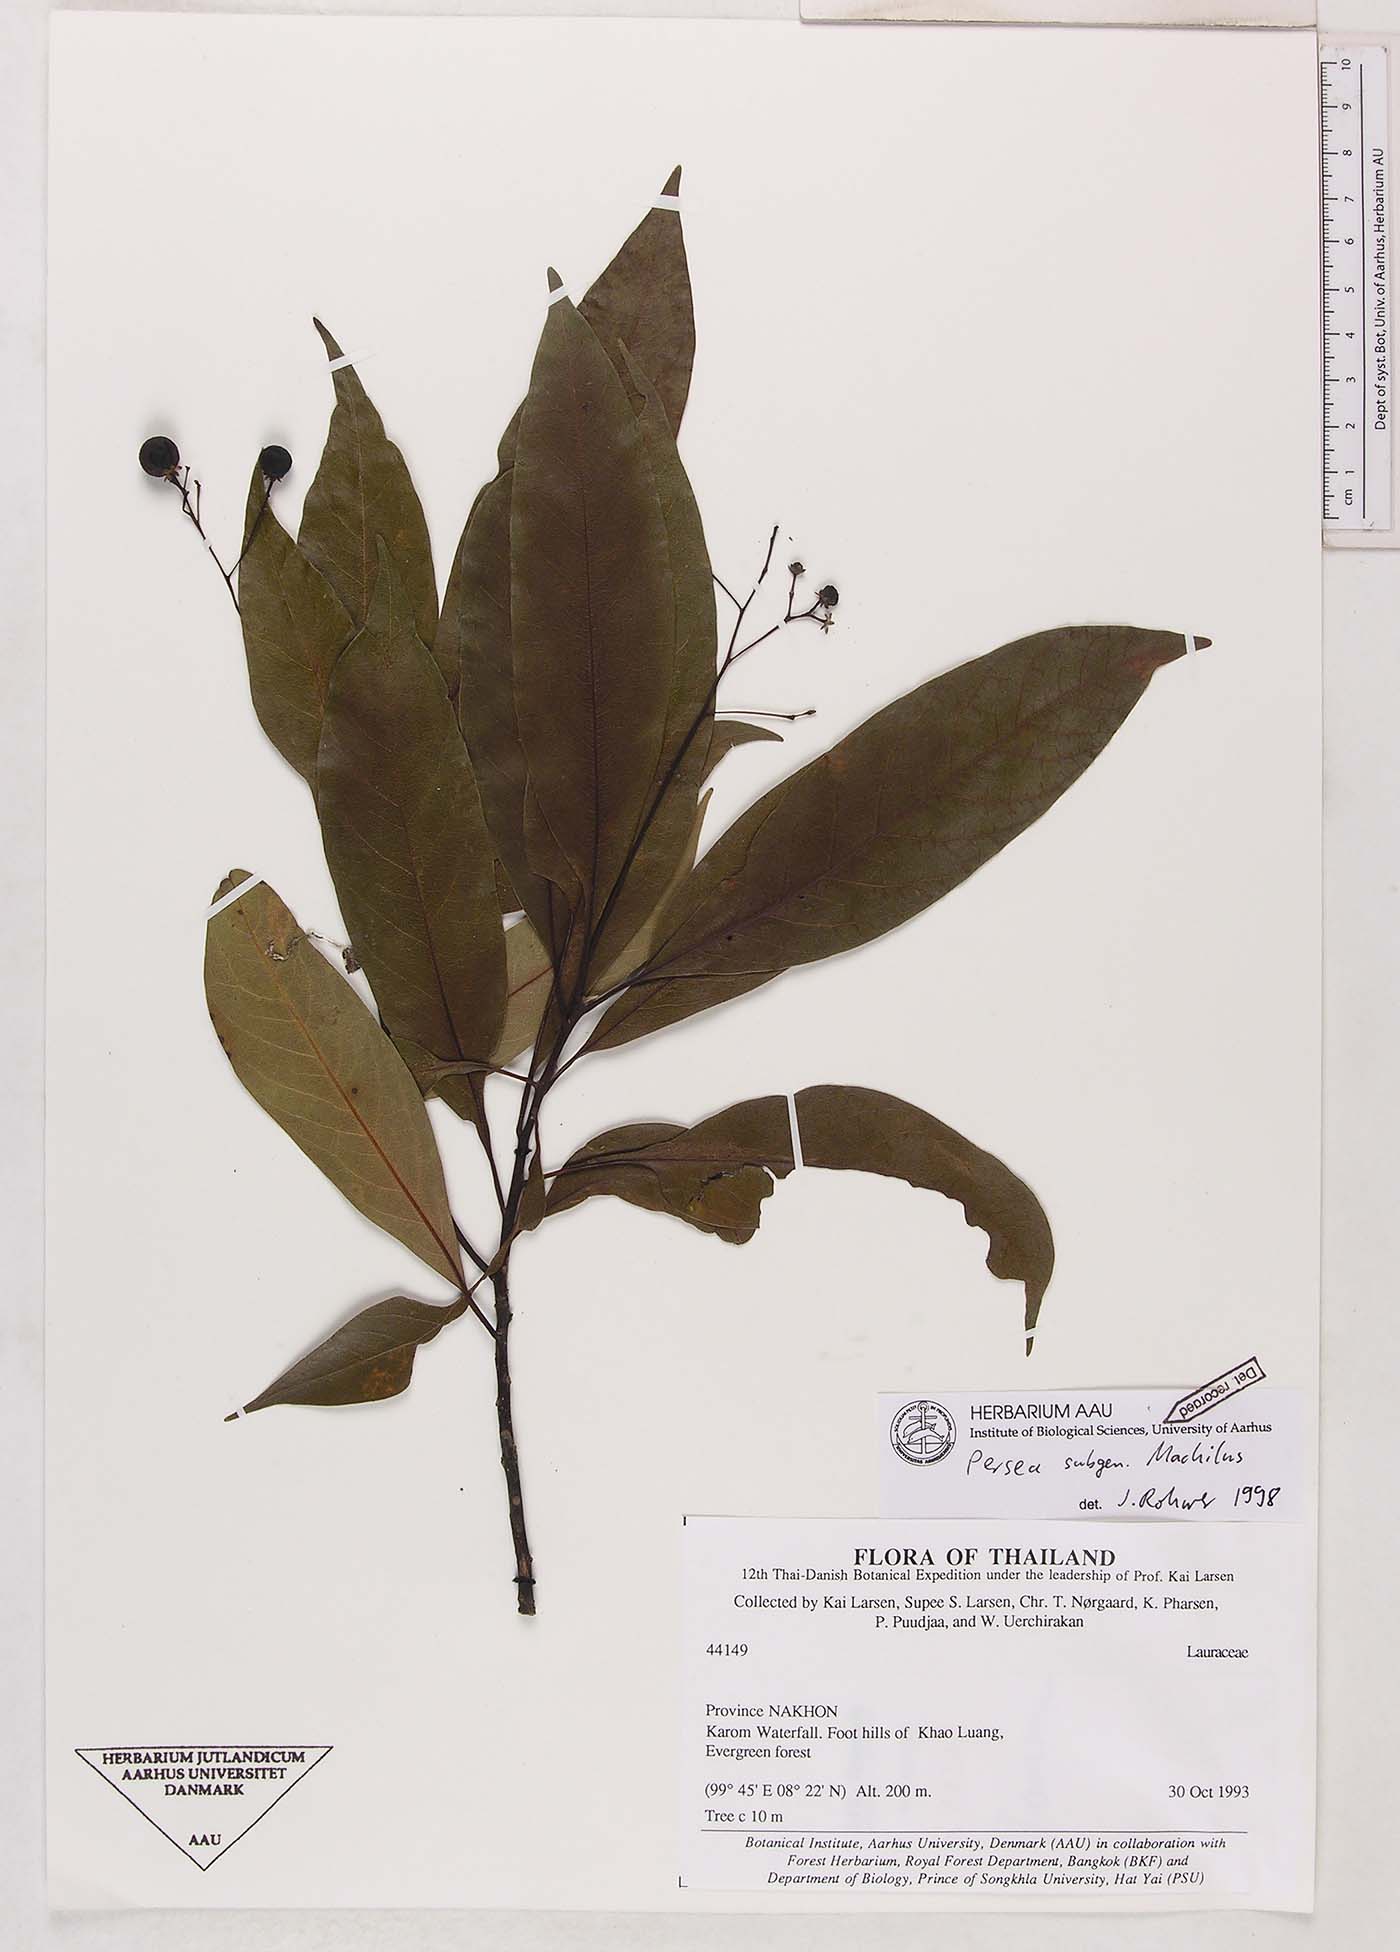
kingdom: Plantae
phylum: Tracheophyta
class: Magnoliopsida
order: Laurales
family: Lauraceae
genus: Persea
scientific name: Persea
